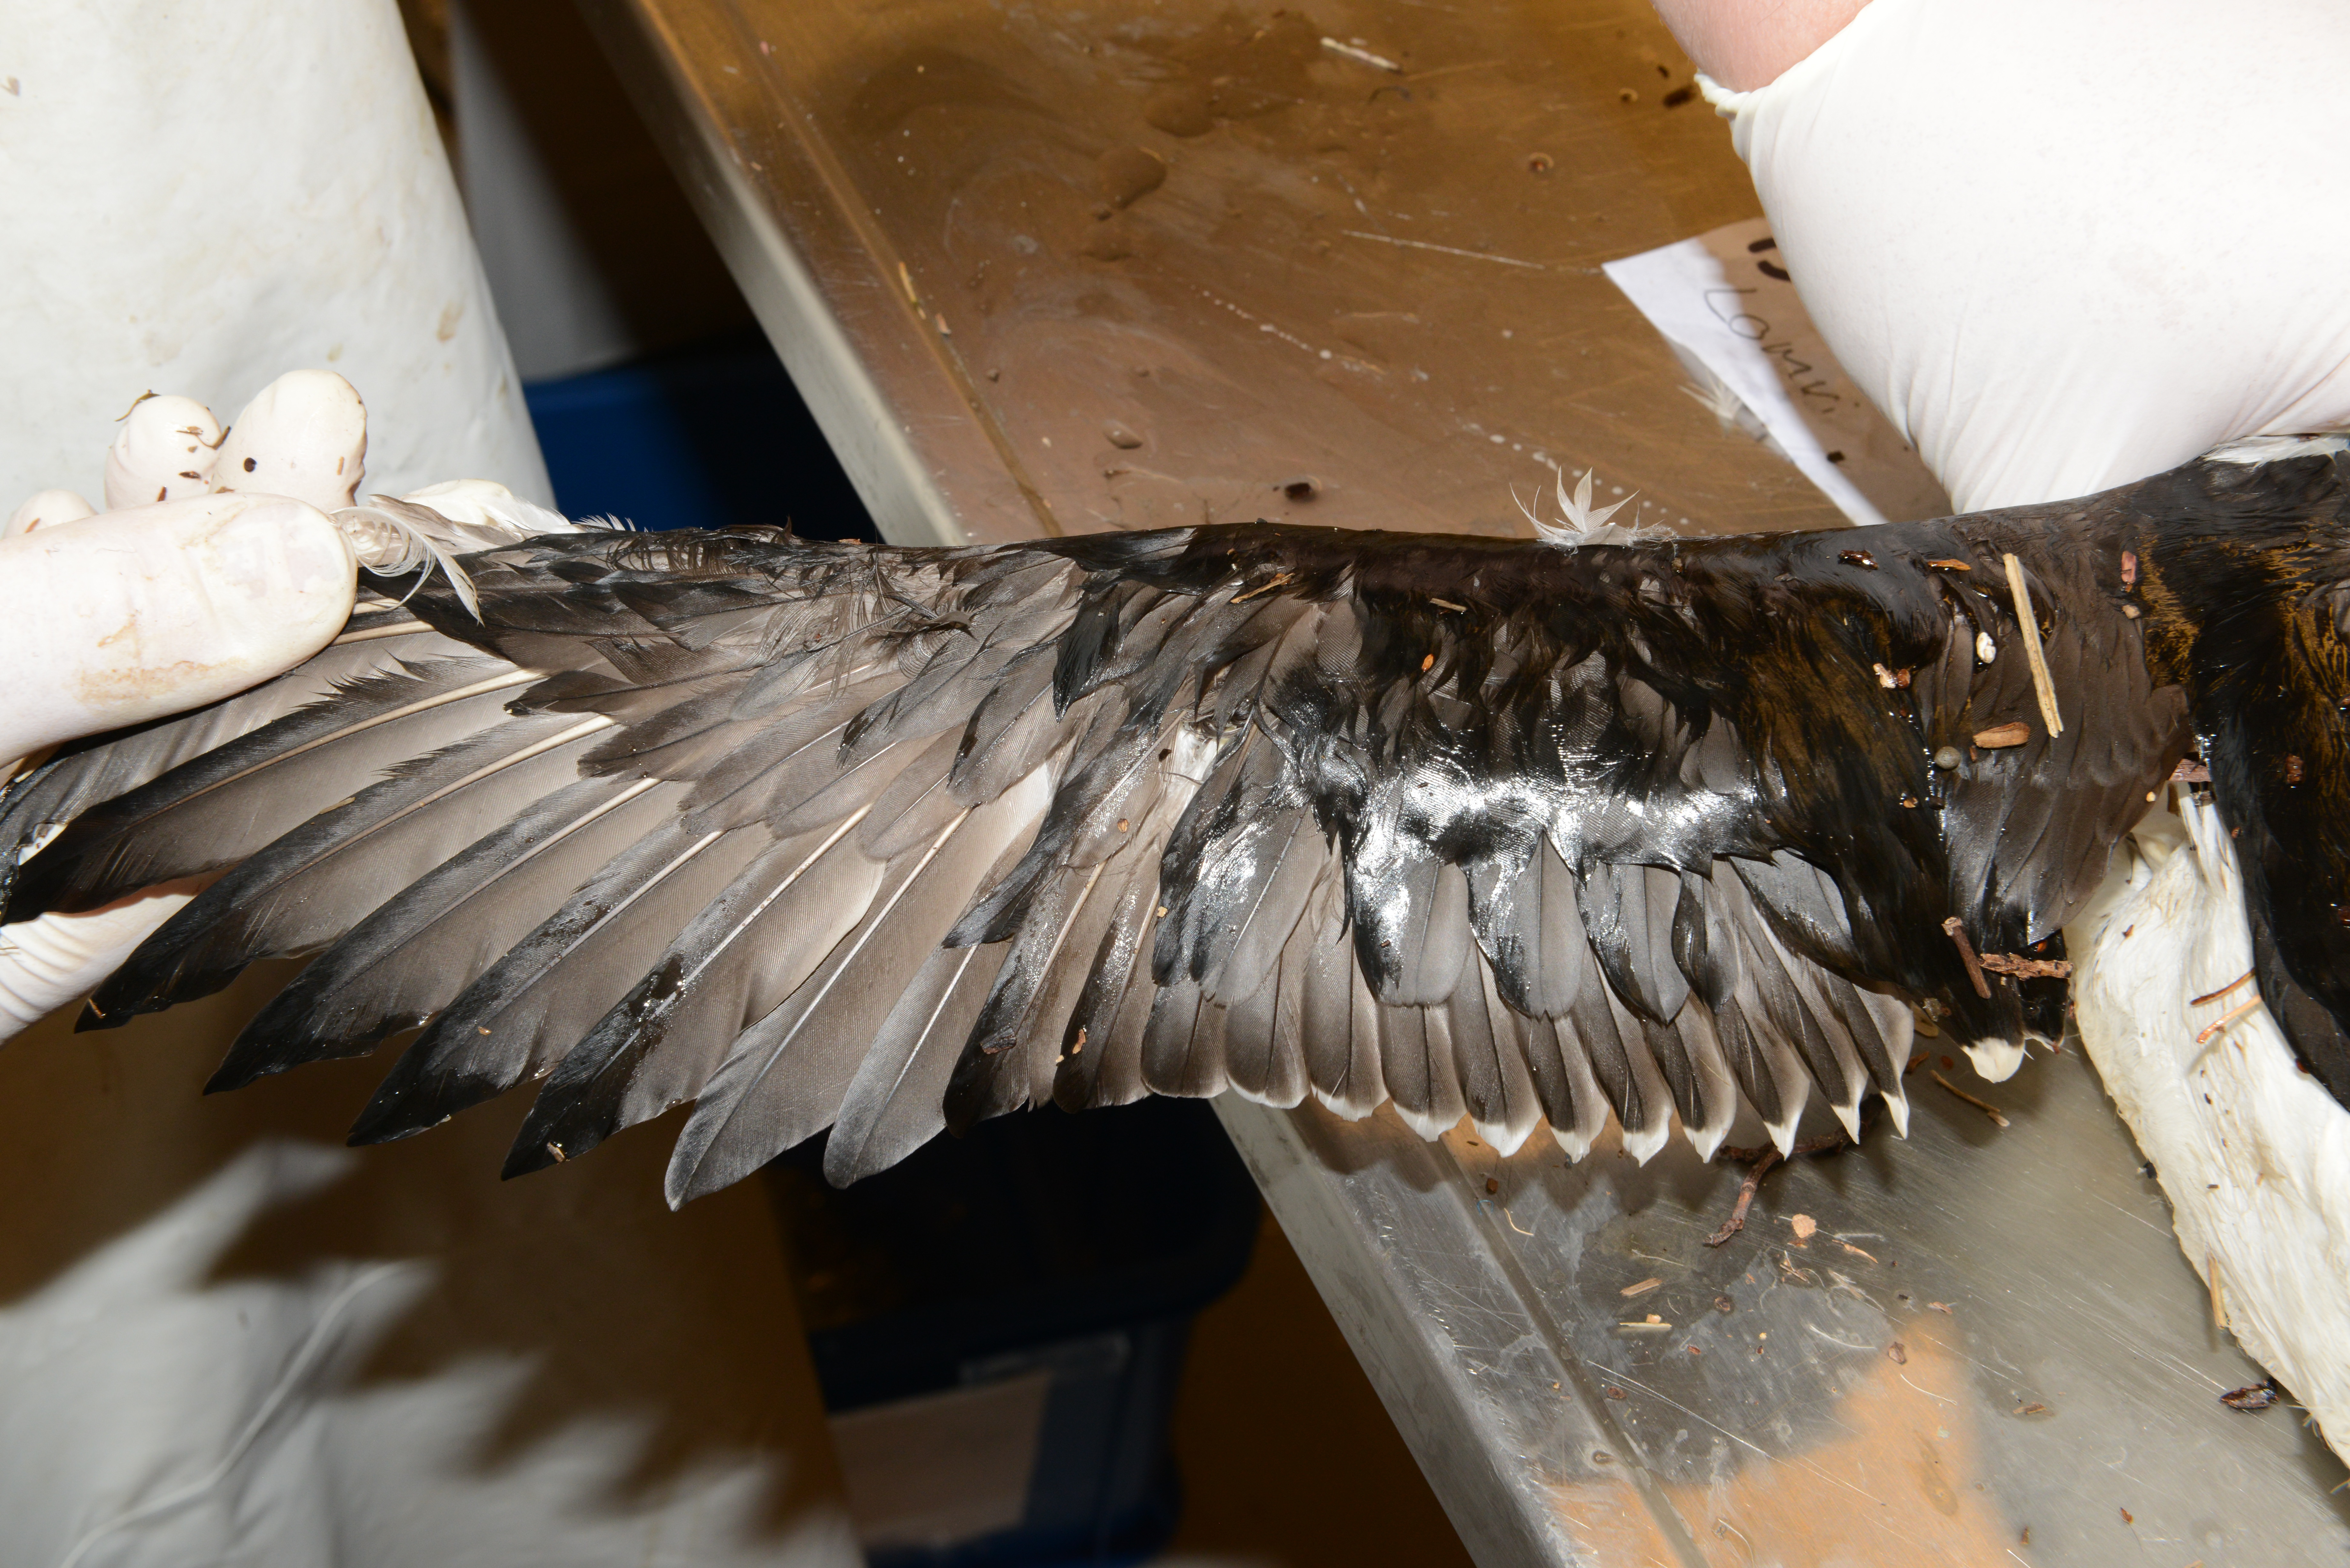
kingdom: Animalia
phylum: Chordata
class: Aves
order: Charadriiformes
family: Alcidae
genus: Uria
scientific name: Uria aalge
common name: Common murre
